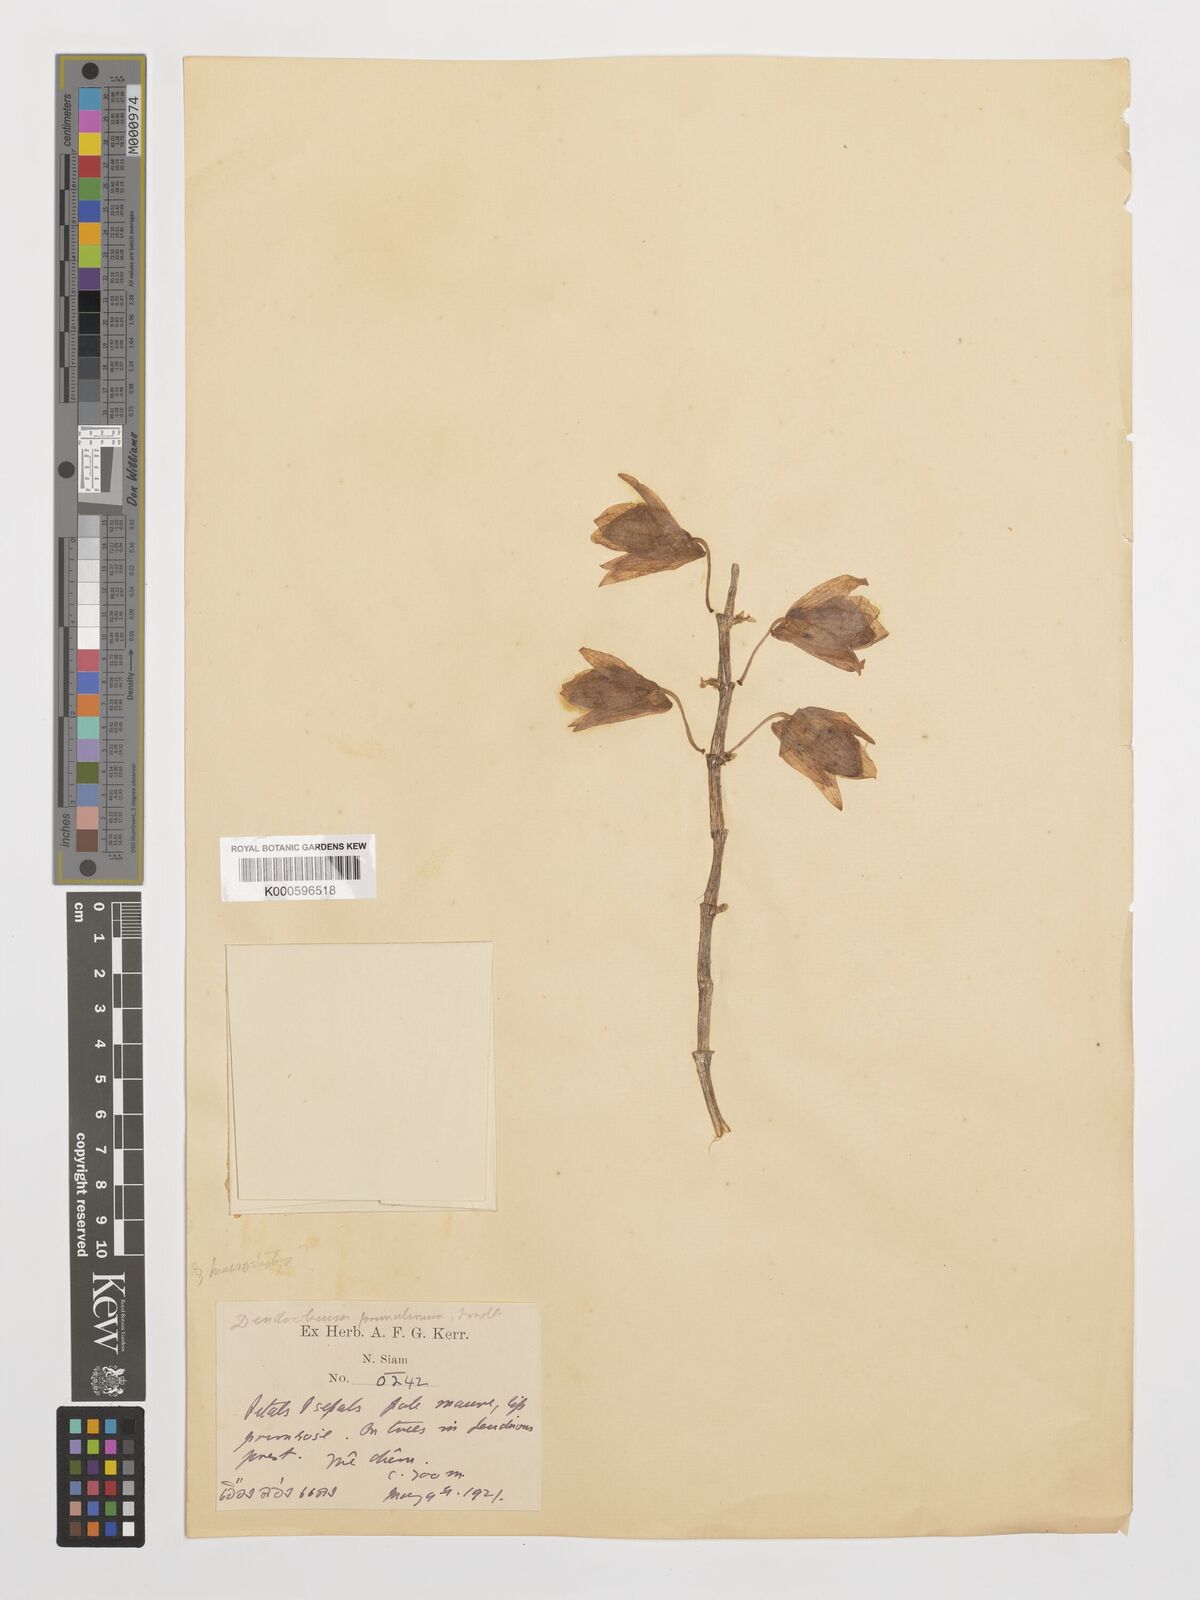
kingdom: Plantae
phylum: Tracheophyta
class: Liliopsida
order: Asparagales
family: Orchidaceae
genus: Dendrobium
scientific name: Dendrobium polyanthum
